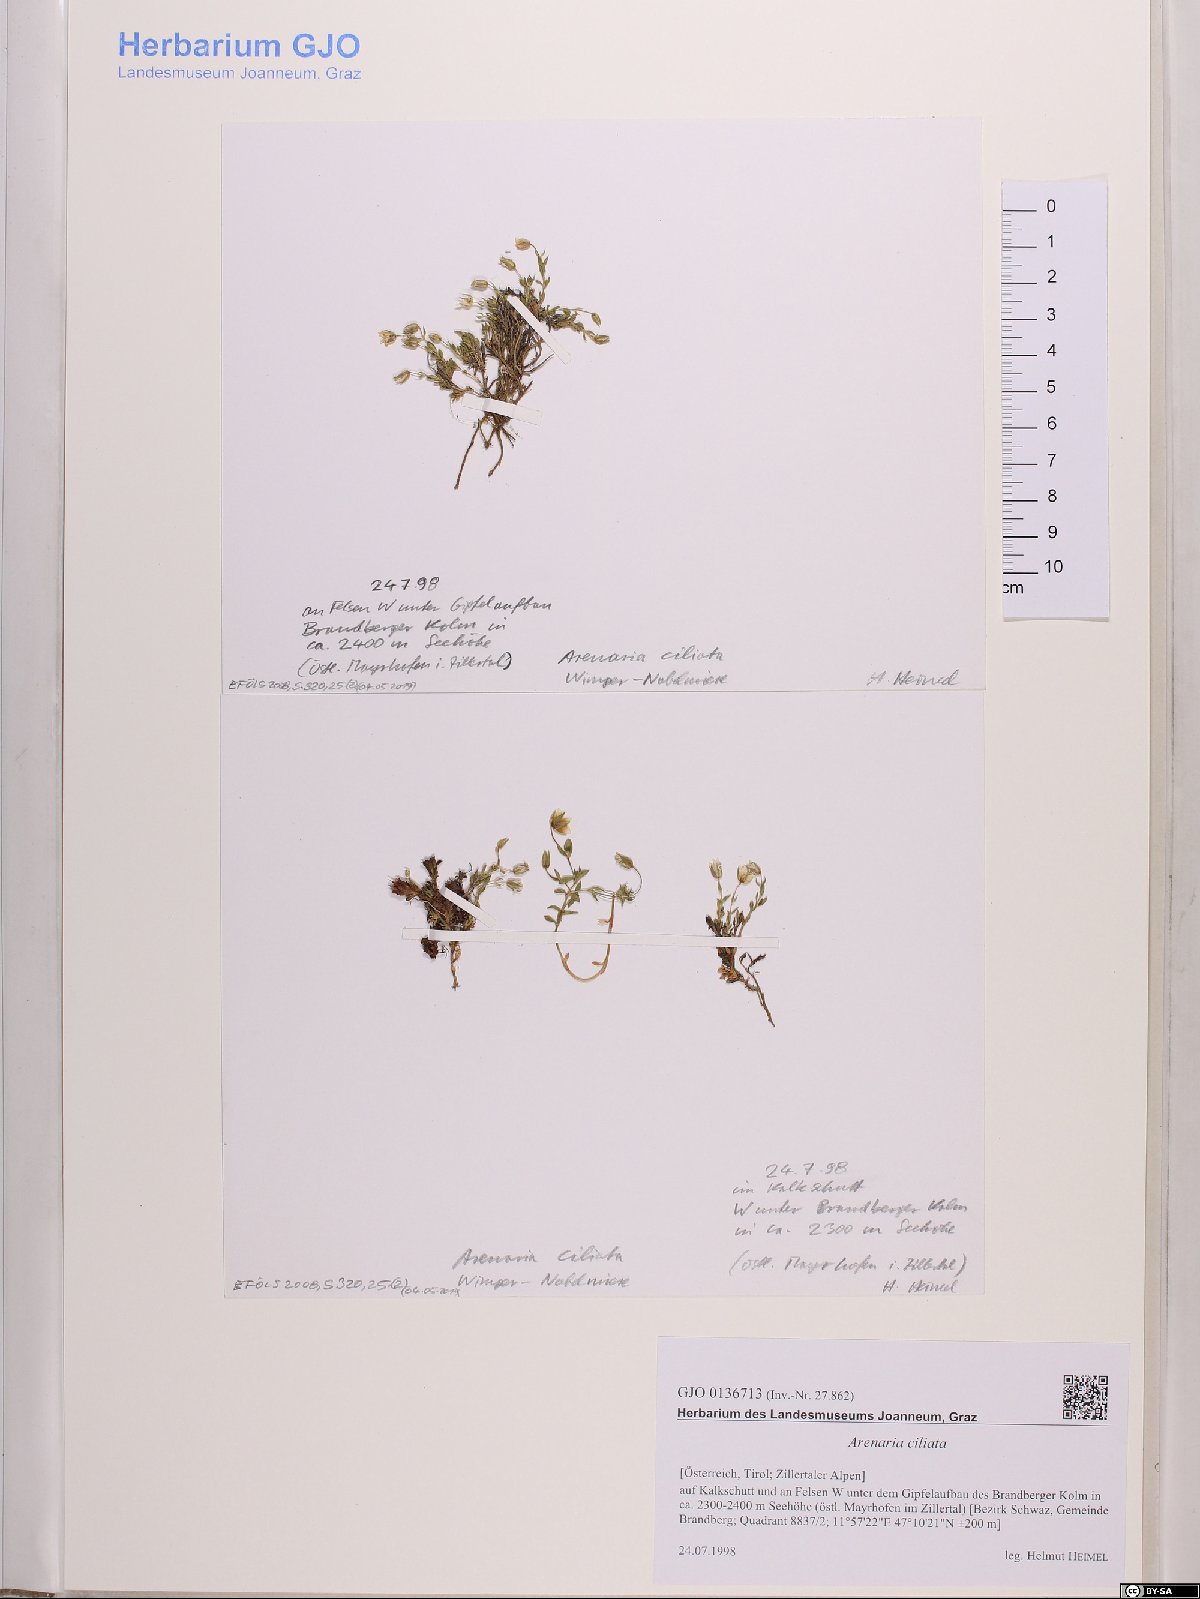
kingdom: Plantae
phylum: Tracheophyta
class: Magnoliopsida
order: Caryophyllales
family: Caryophyllaceae
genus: Arenaria
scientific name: Arenaria ciliata
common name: Fringed sandwort
